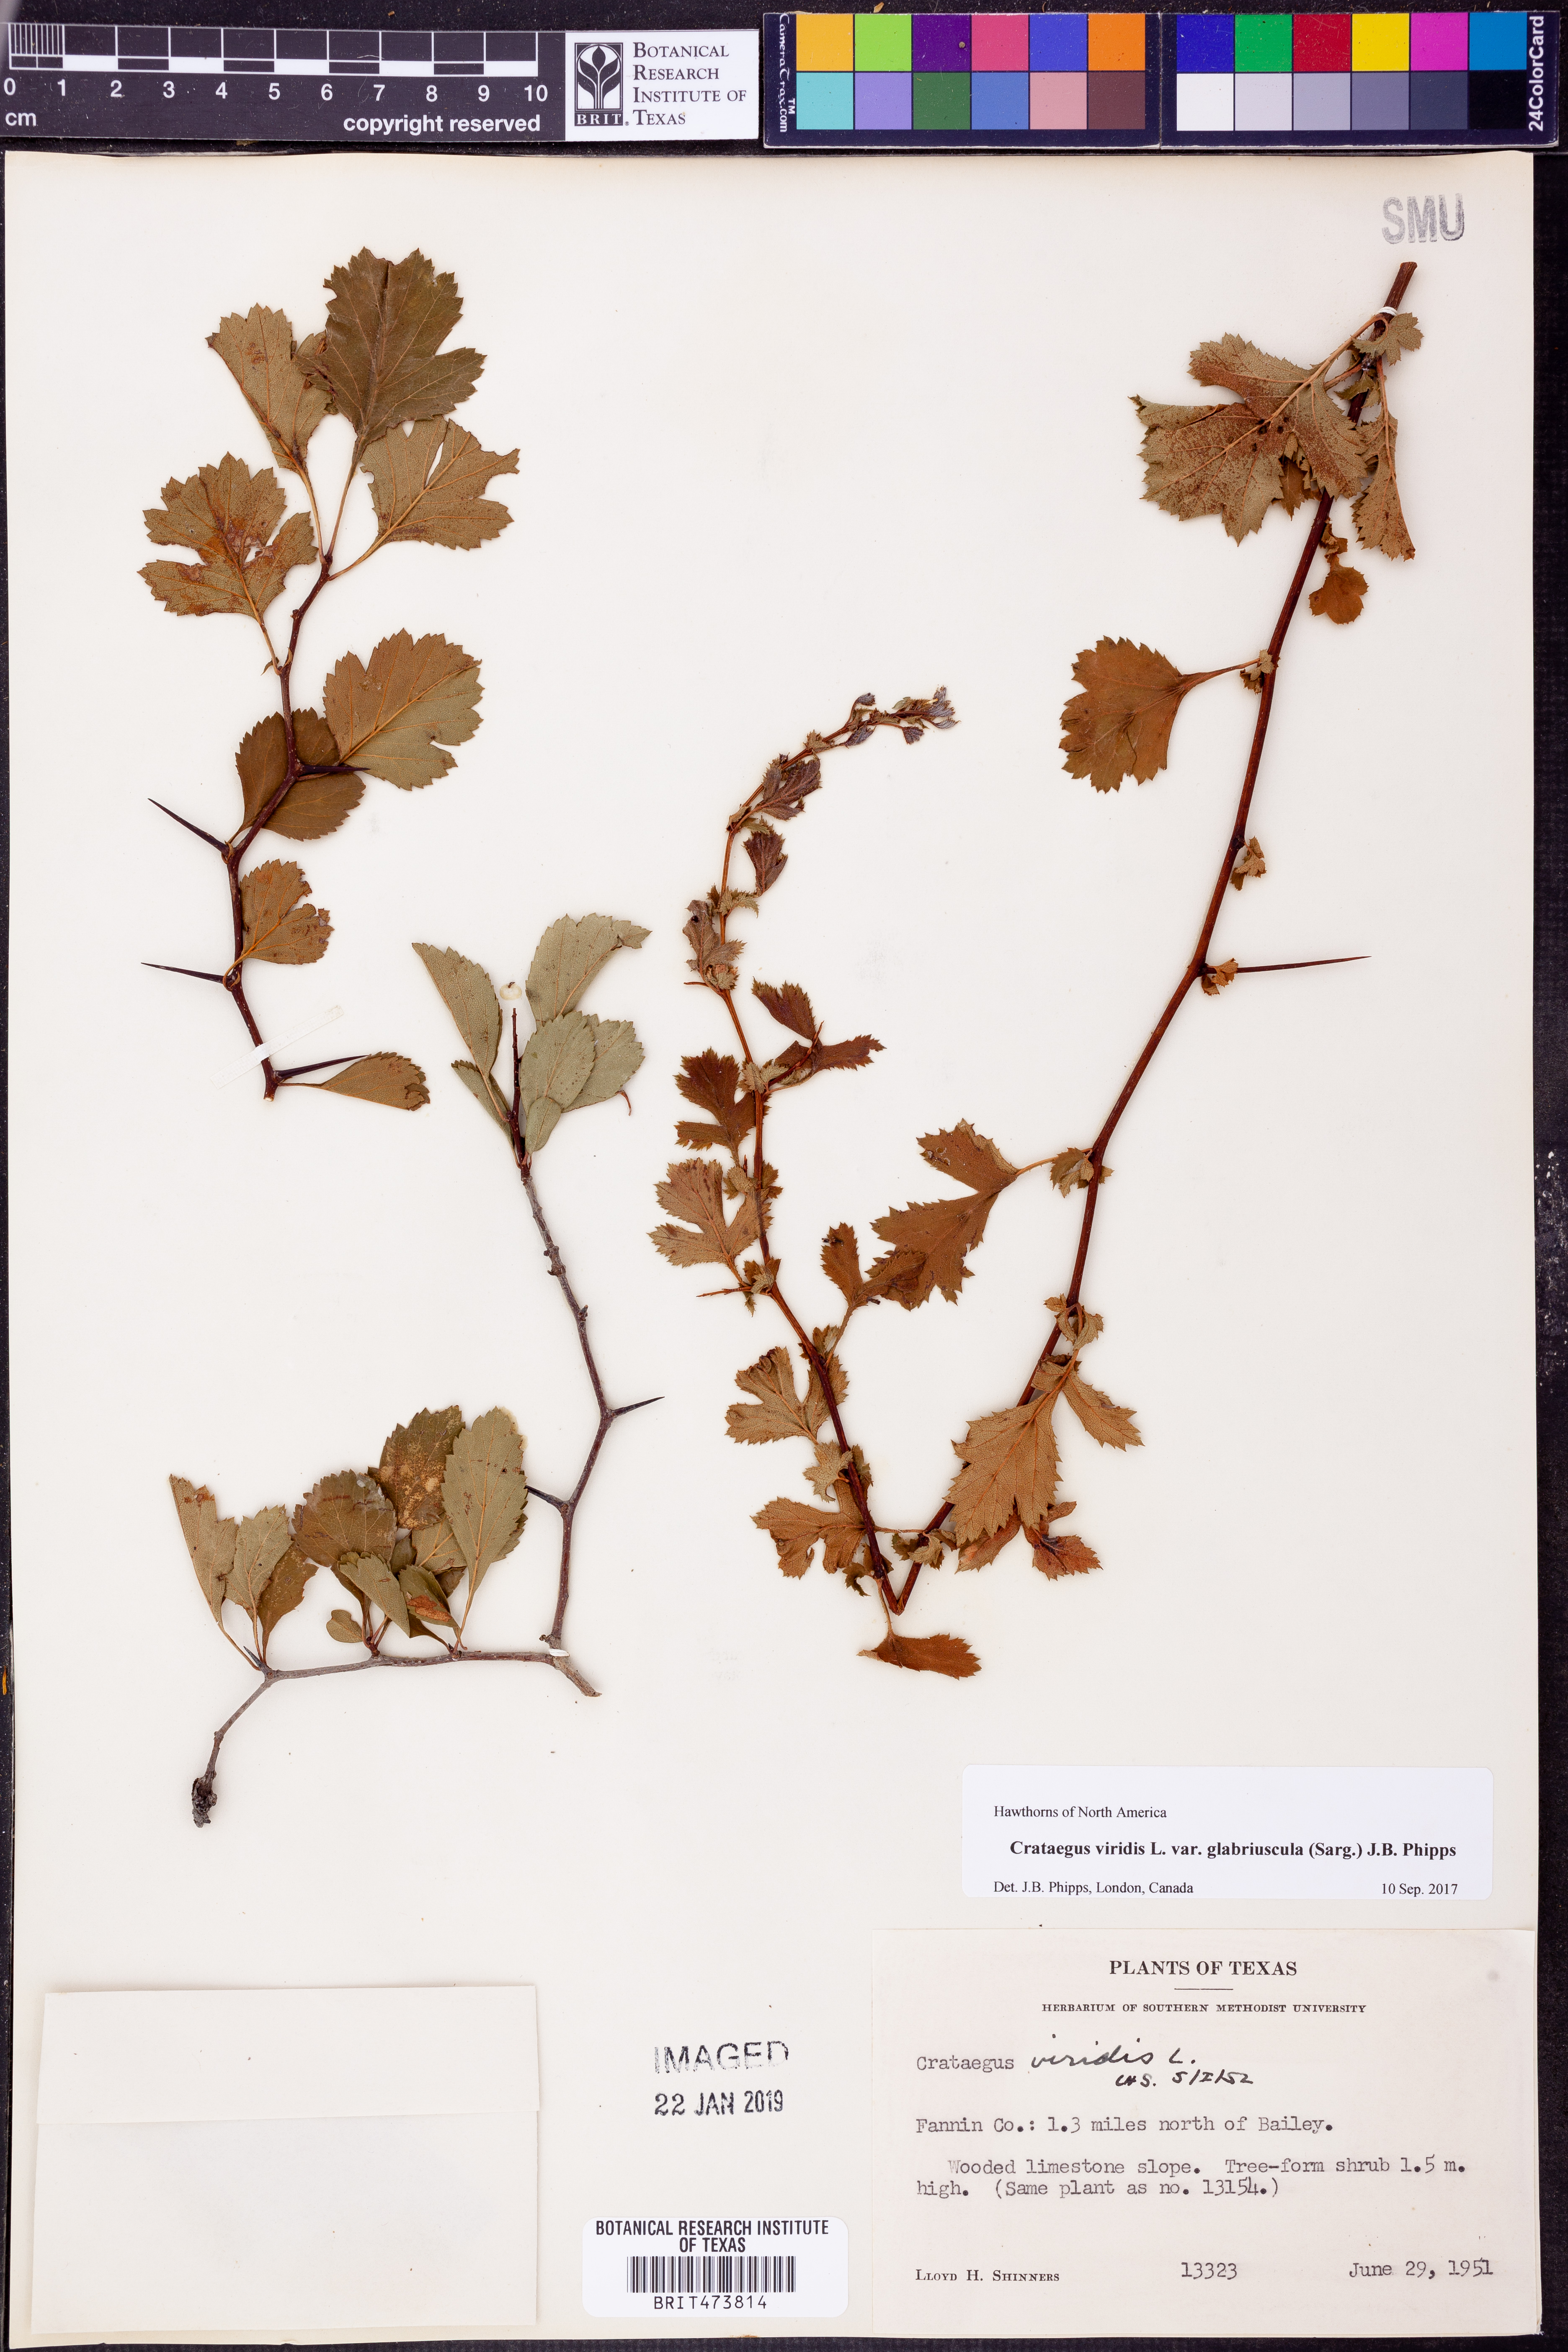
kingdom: Plantae
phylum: Tracheophyta
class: Magnoliopsida
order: Rosales
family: Rosaceae
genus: Crataegus
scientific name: Crataegus viridis
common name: Southernthorn
